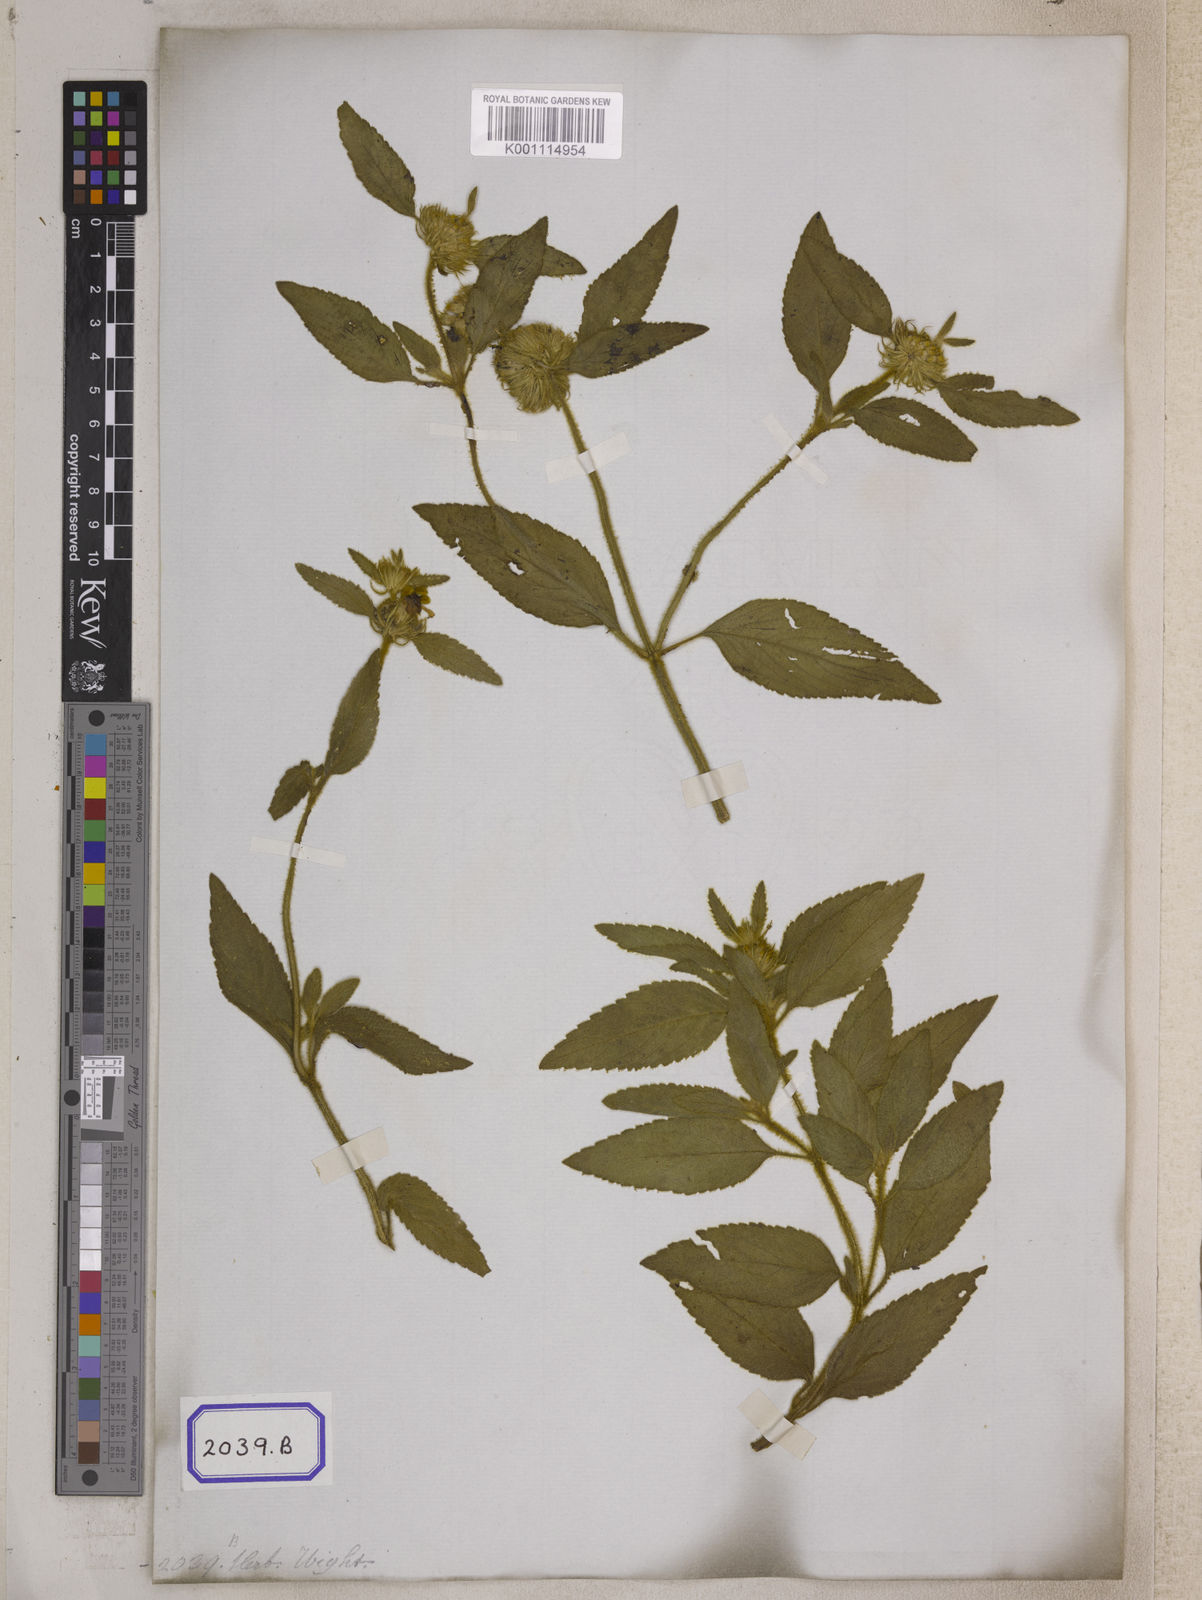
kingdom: Plantae
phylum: Tracheophyta
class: Magnoliopsida
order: Lamiales
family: Lamiaceae
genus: Leucas
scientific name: Leucas vestita
